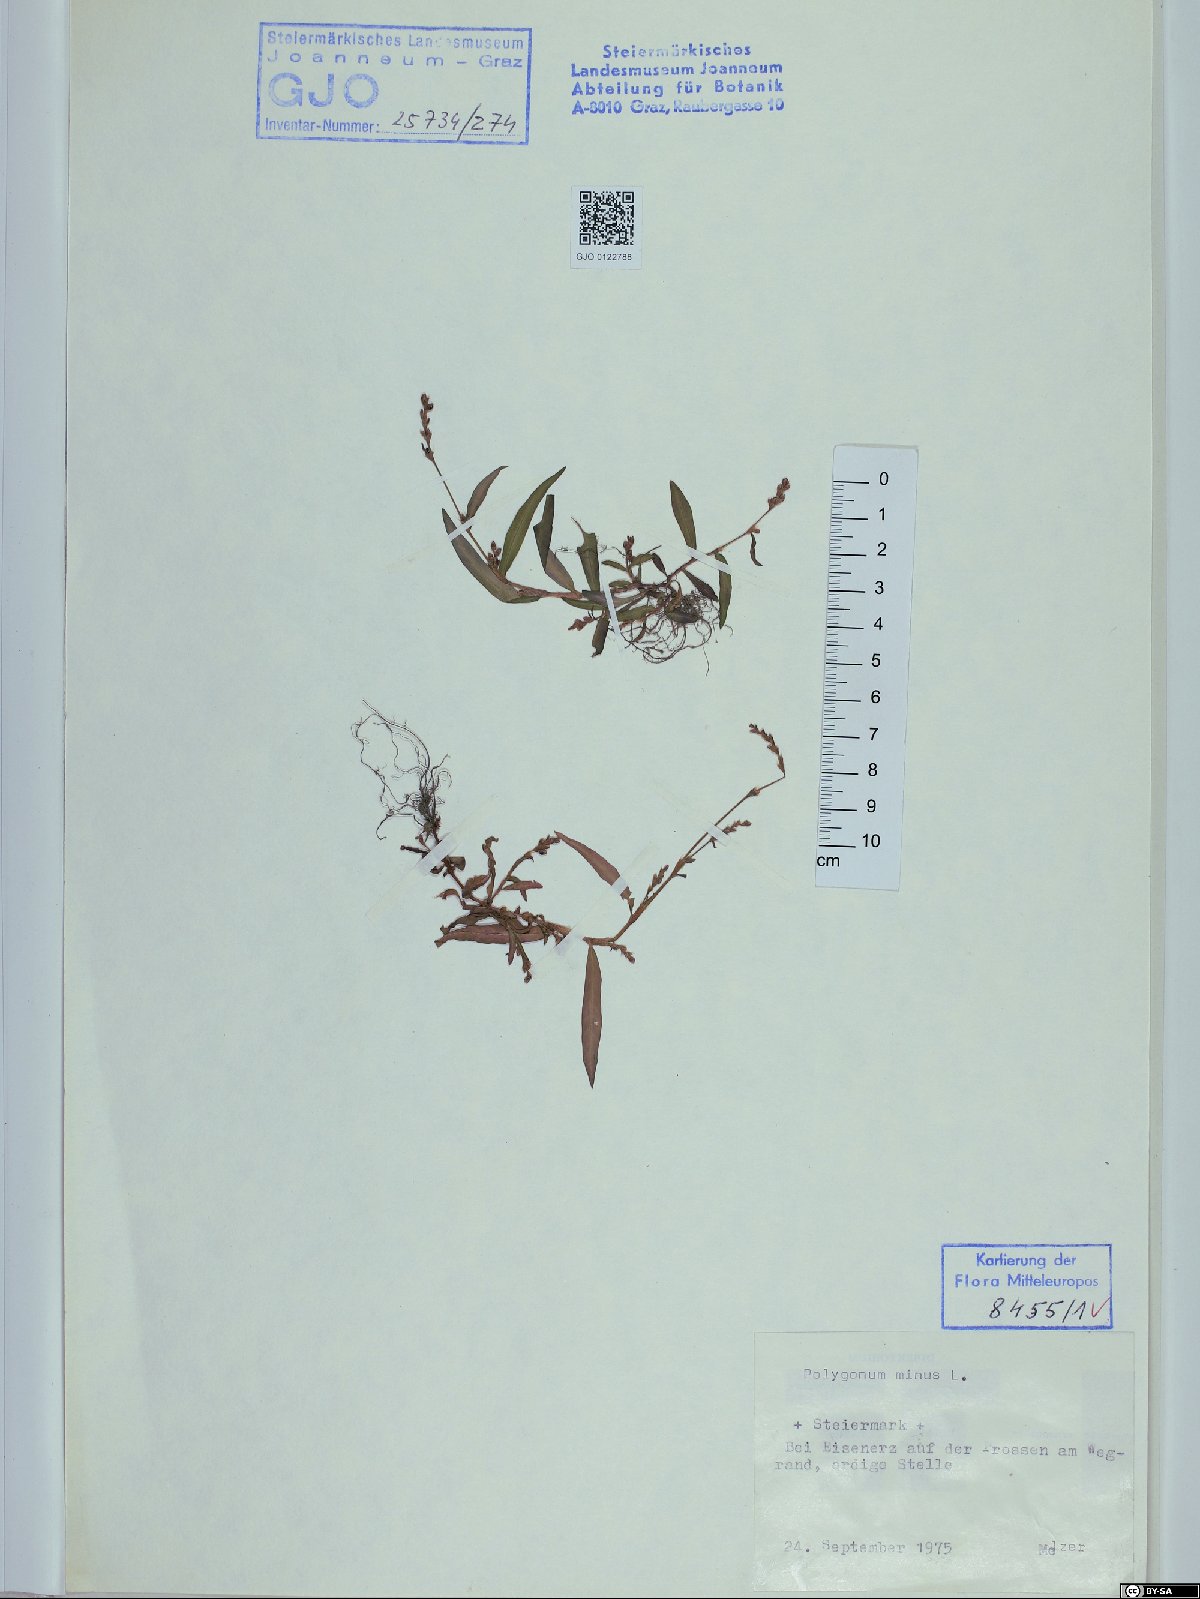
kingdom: Plantae
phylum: Tracheophyta
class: Magnoliopsida
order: Caryophyllales
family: Polygonaceae
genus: Persicaria
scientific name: Persicaria minor
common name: Small water-pepper
